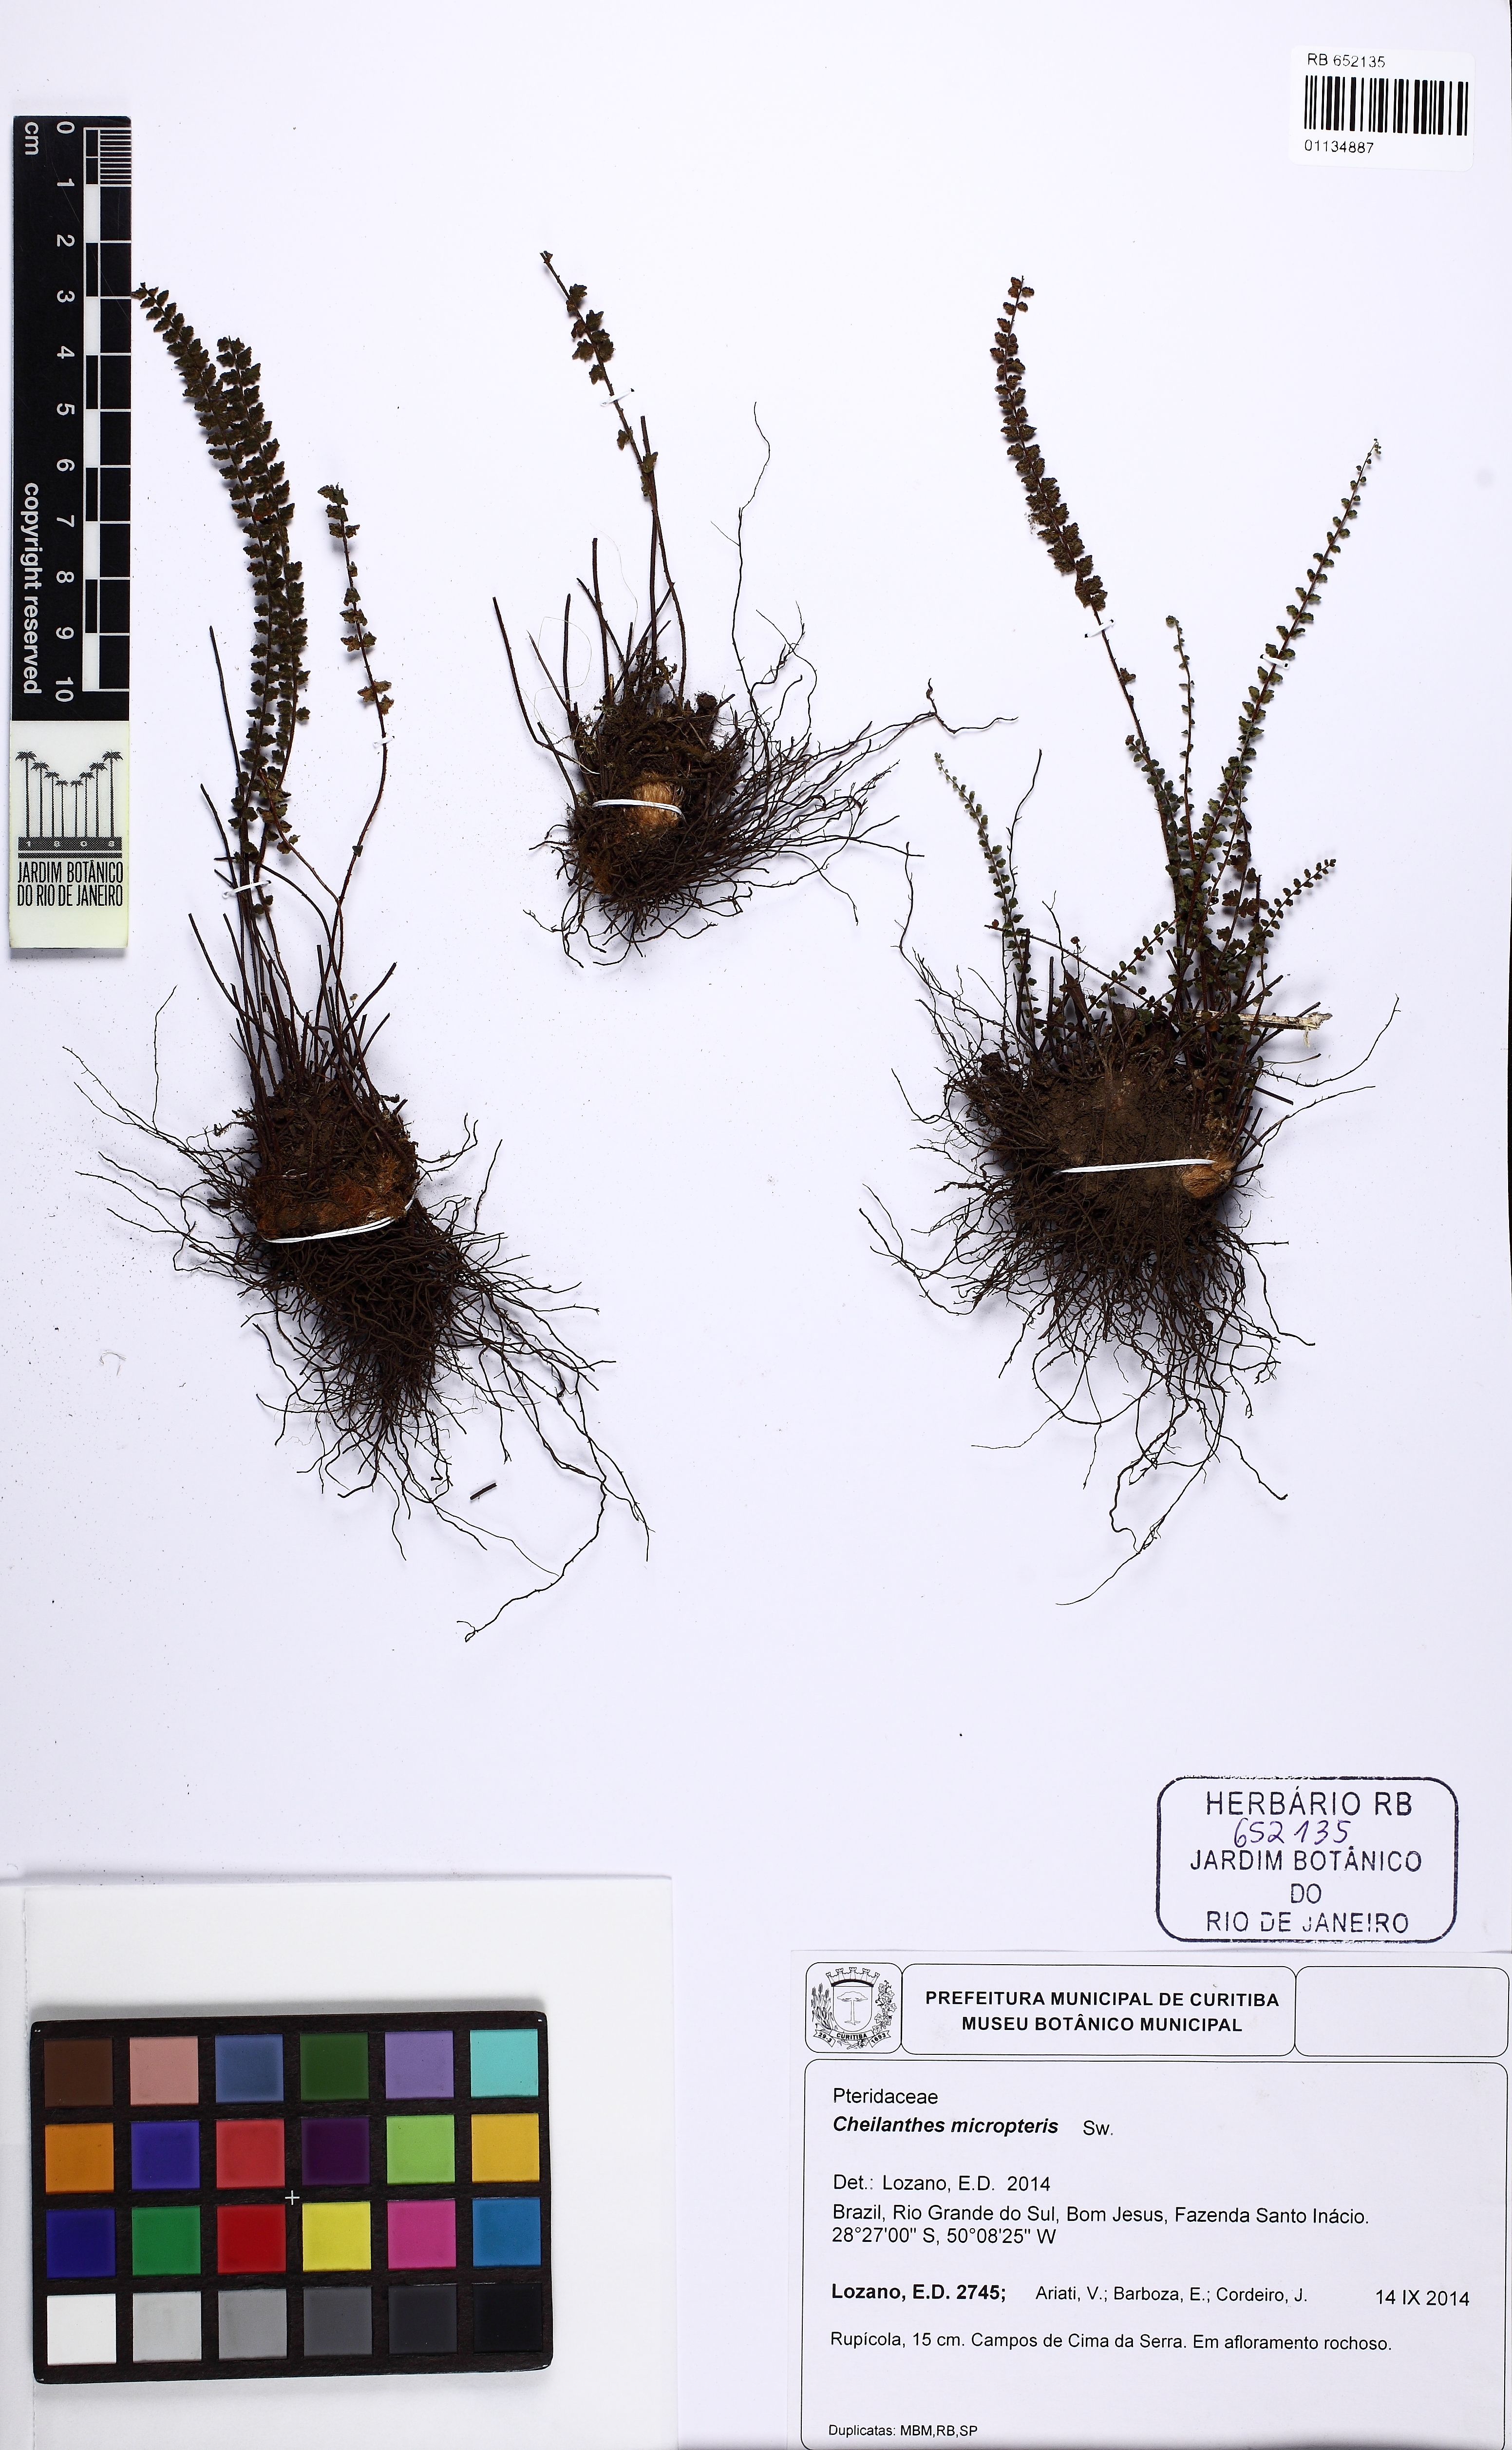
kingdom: Plantae
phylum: Tracheophyta
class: Polypodiopsida
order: Polypodiales
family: Pteridaceae
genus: Myriopteris
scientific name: Myriopteris microphylla
